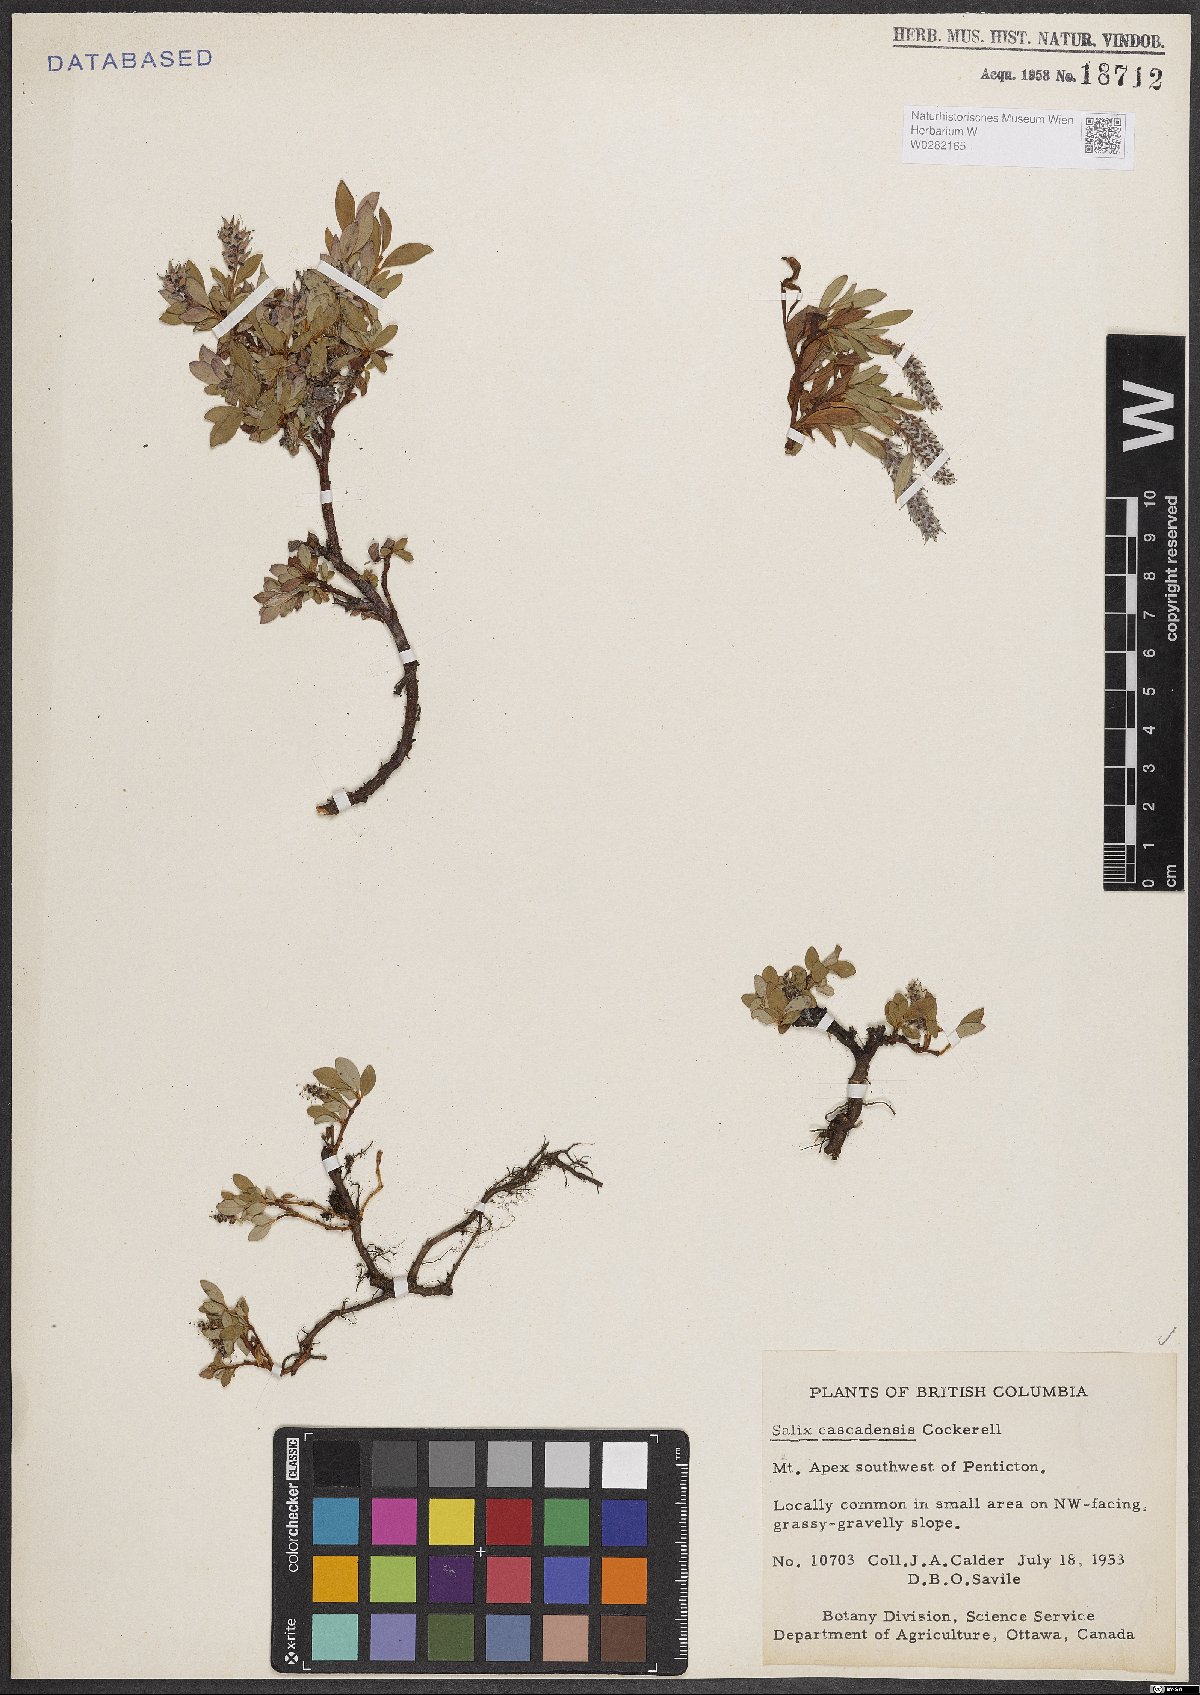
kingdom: Plantae
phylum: Tracheophyta
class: Magnoliopsida
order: Malpighiales
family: Salicaceae
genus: Salix
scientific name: Salix cascadensis
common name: Cascade willow
